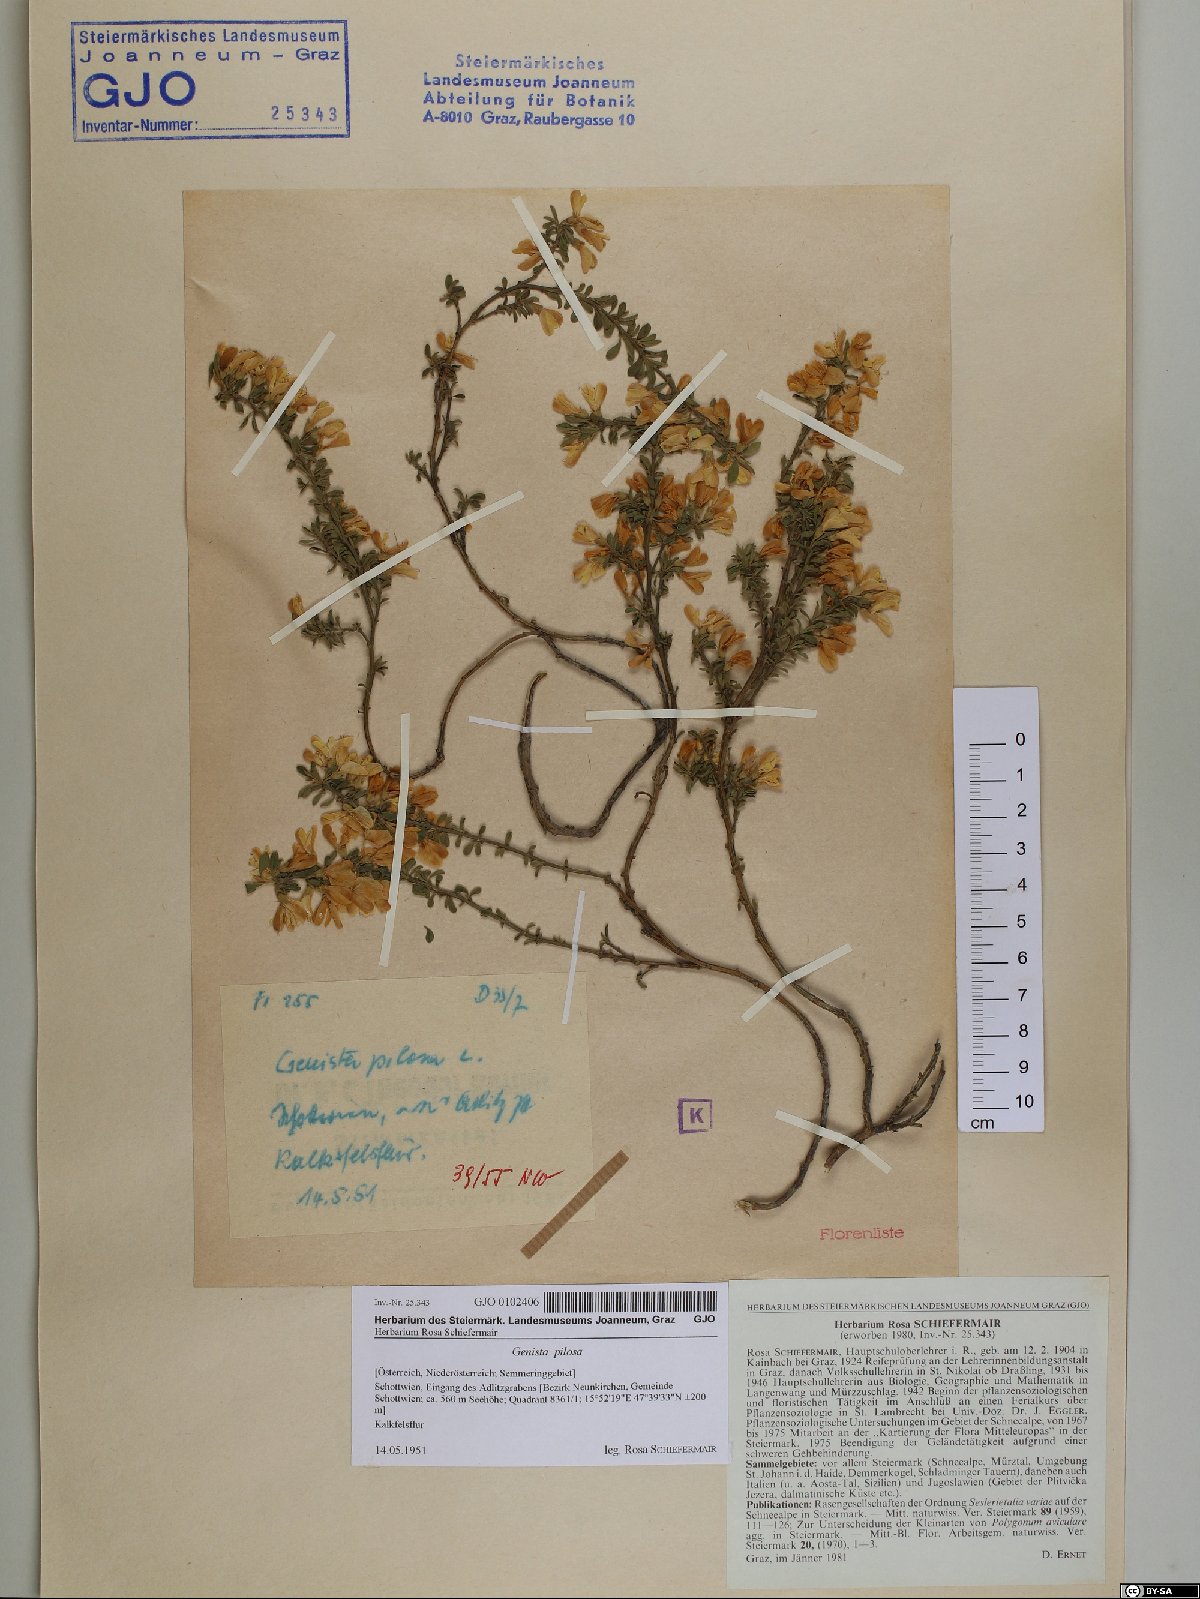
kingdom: Plantae
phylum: Tracheophyta
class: Magnoliopsida
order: Fabales
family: Fabaceae
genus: Genista
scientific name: Genista pilosa
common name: Hairy greenweed
